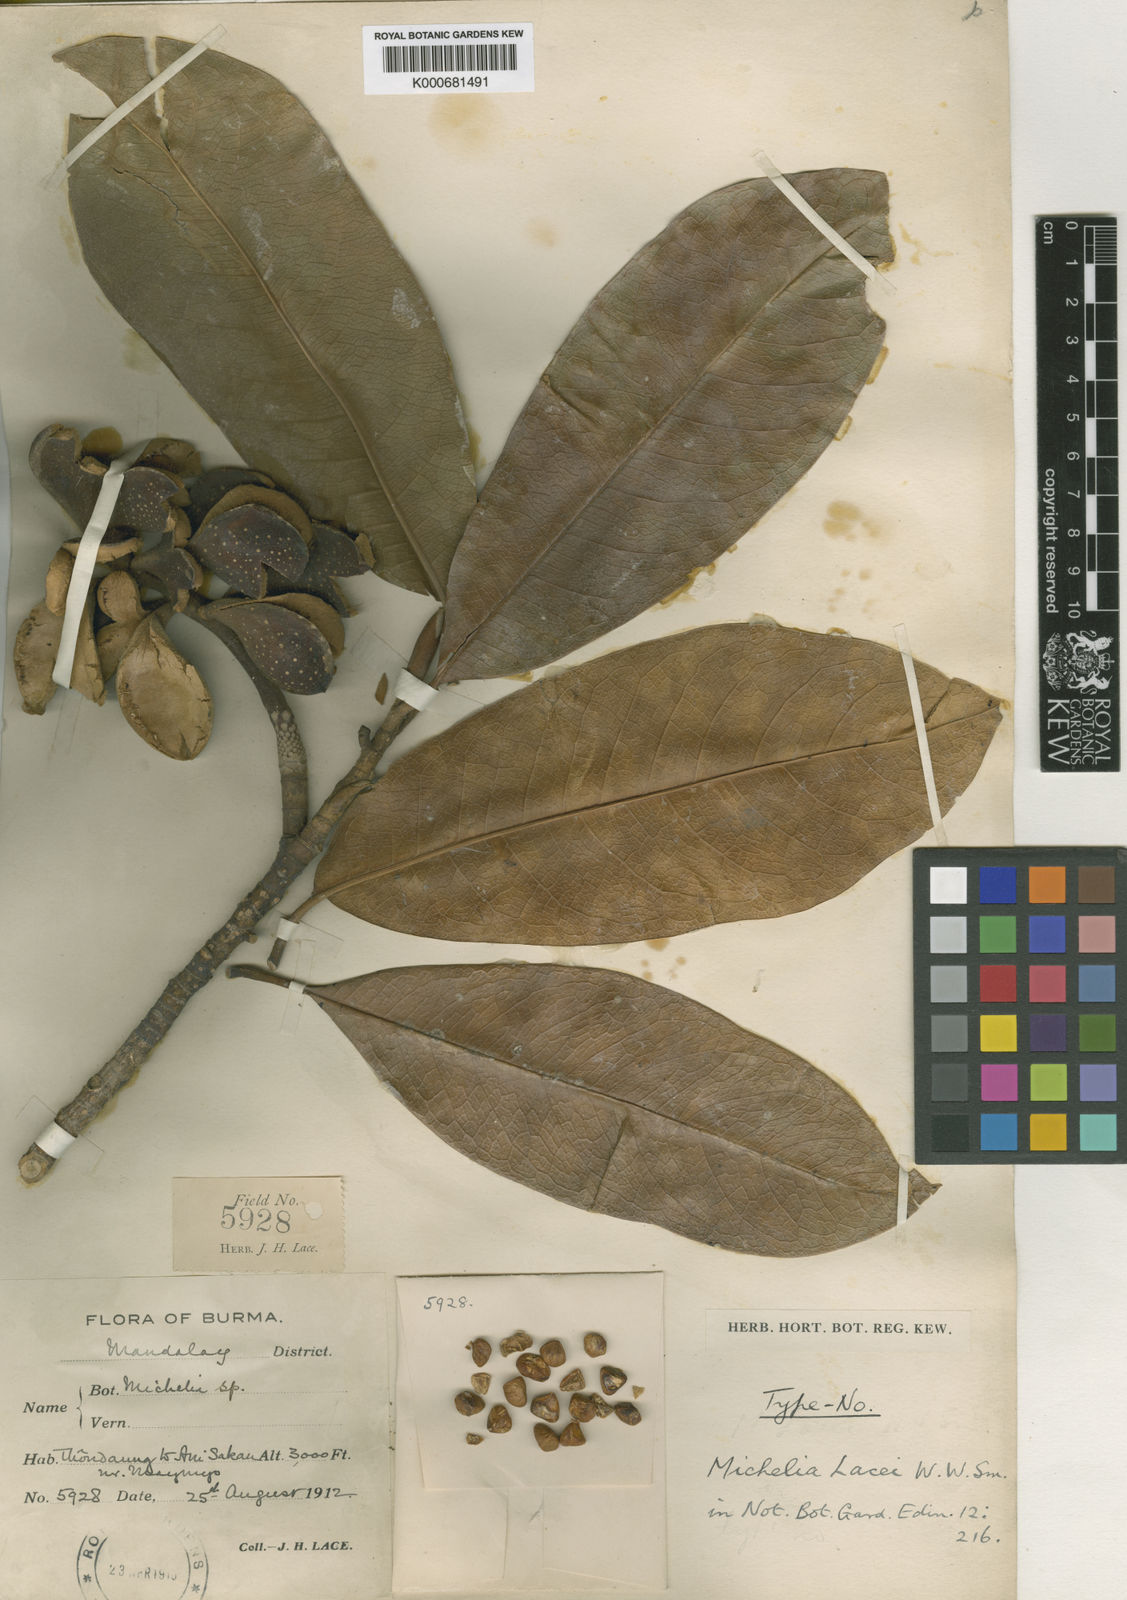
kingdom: Plantae
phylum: Tracheophyta
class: Magnoliopsida
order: Magnoliales
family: Magnoliaceae
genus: Magnolia
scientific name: Magnolia lacei
